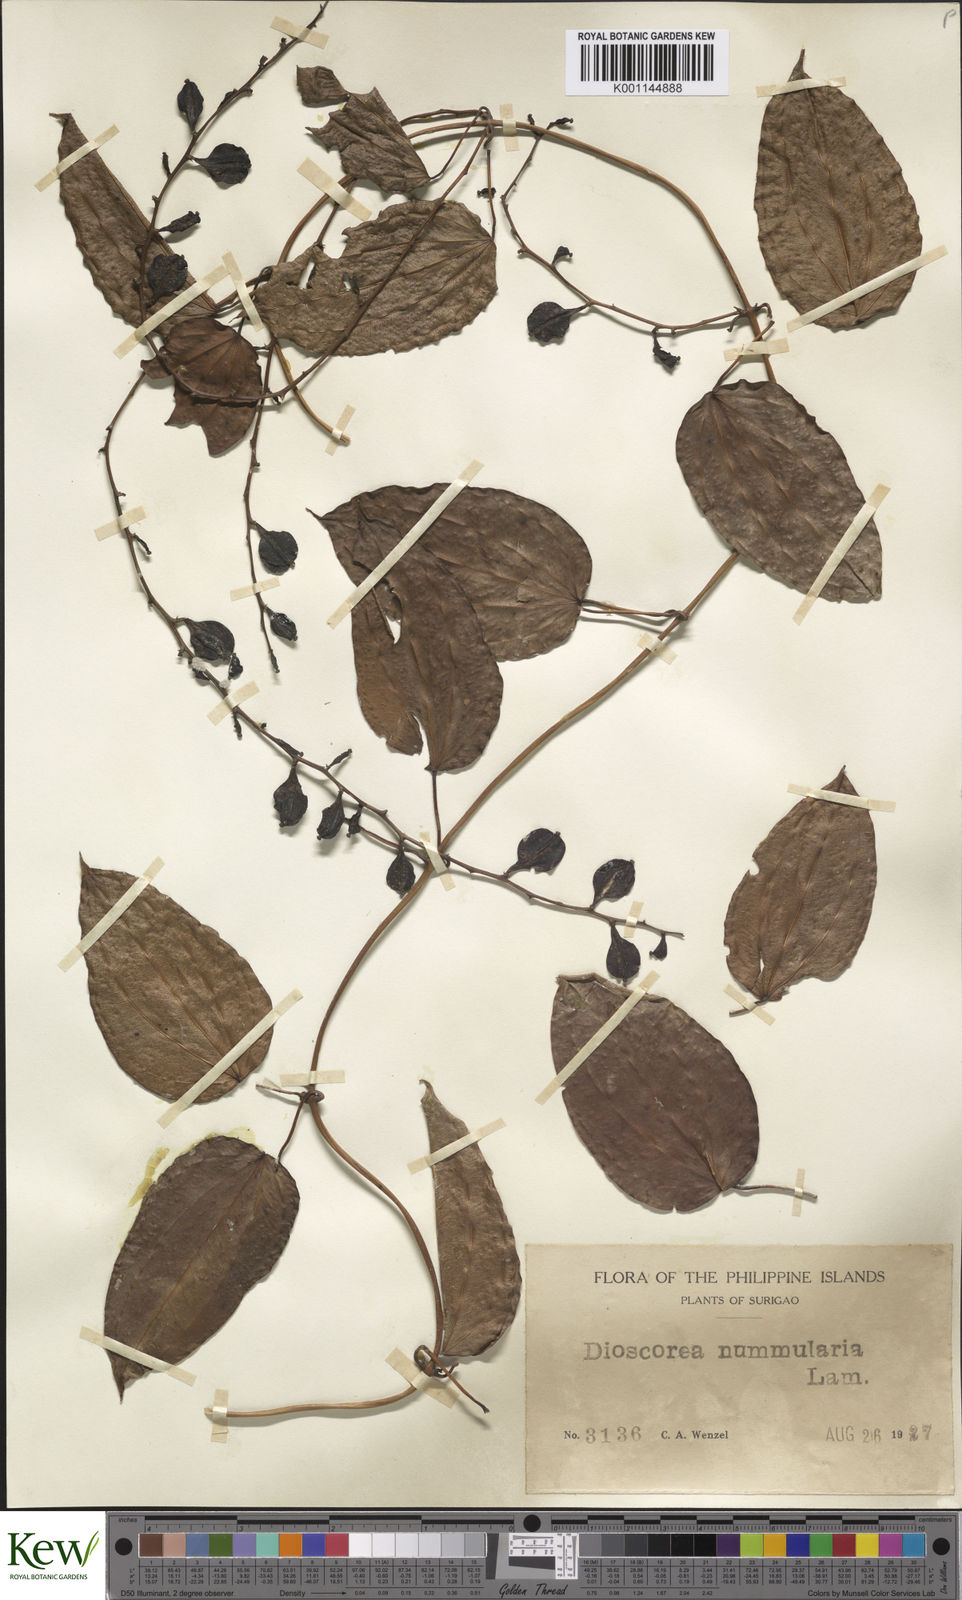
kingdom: Plantae
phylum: Tracheophyta
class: Liliopsida
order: Dioscoreales
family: Dioscoreaceae
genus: Dioscorea
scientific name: Dioscorea nummularia
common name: Pacific yam
